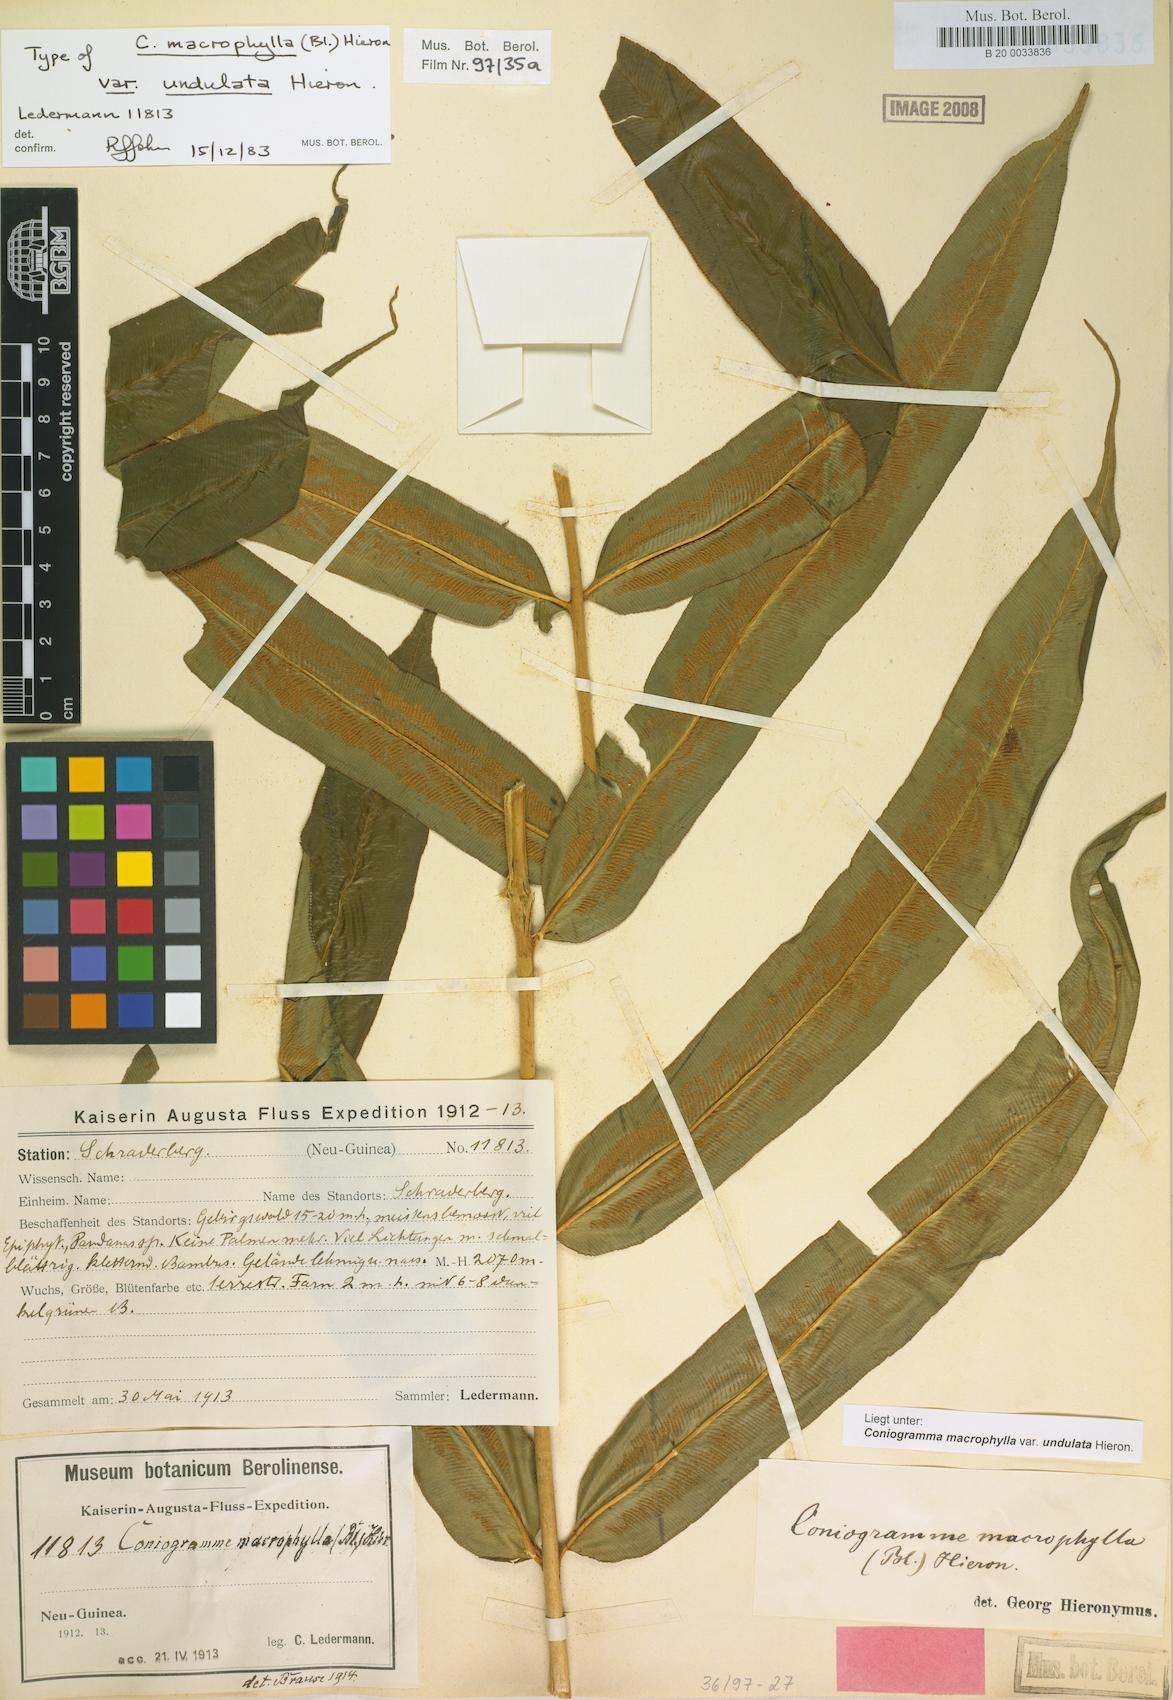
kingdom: Plantae
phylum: Tracheophyta
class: Polypodiopsida
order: Polypodiales
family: Pteridaceae
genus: Coniogramme
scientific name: Coniogramme fraxinea
